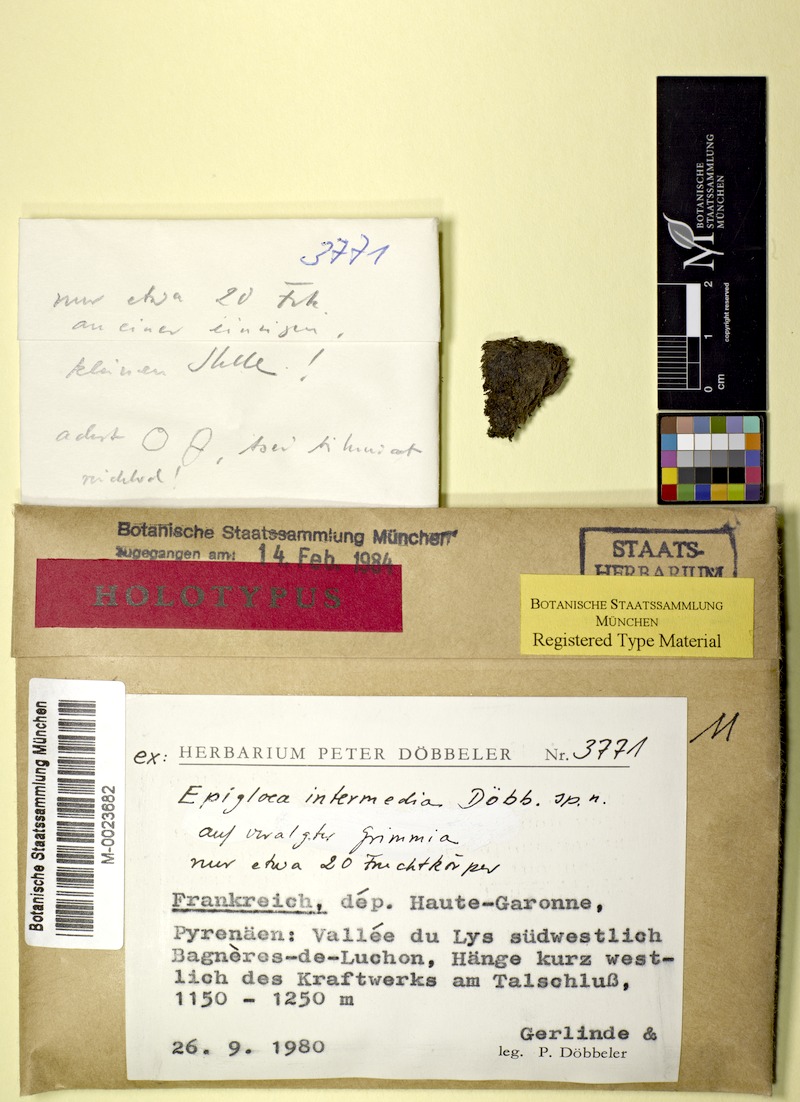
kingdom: Fungi
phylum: Ascomycota
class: Lecanoromycetes
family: Epigloeaceae
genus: Epigloea
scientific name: Epigloea intermedia
